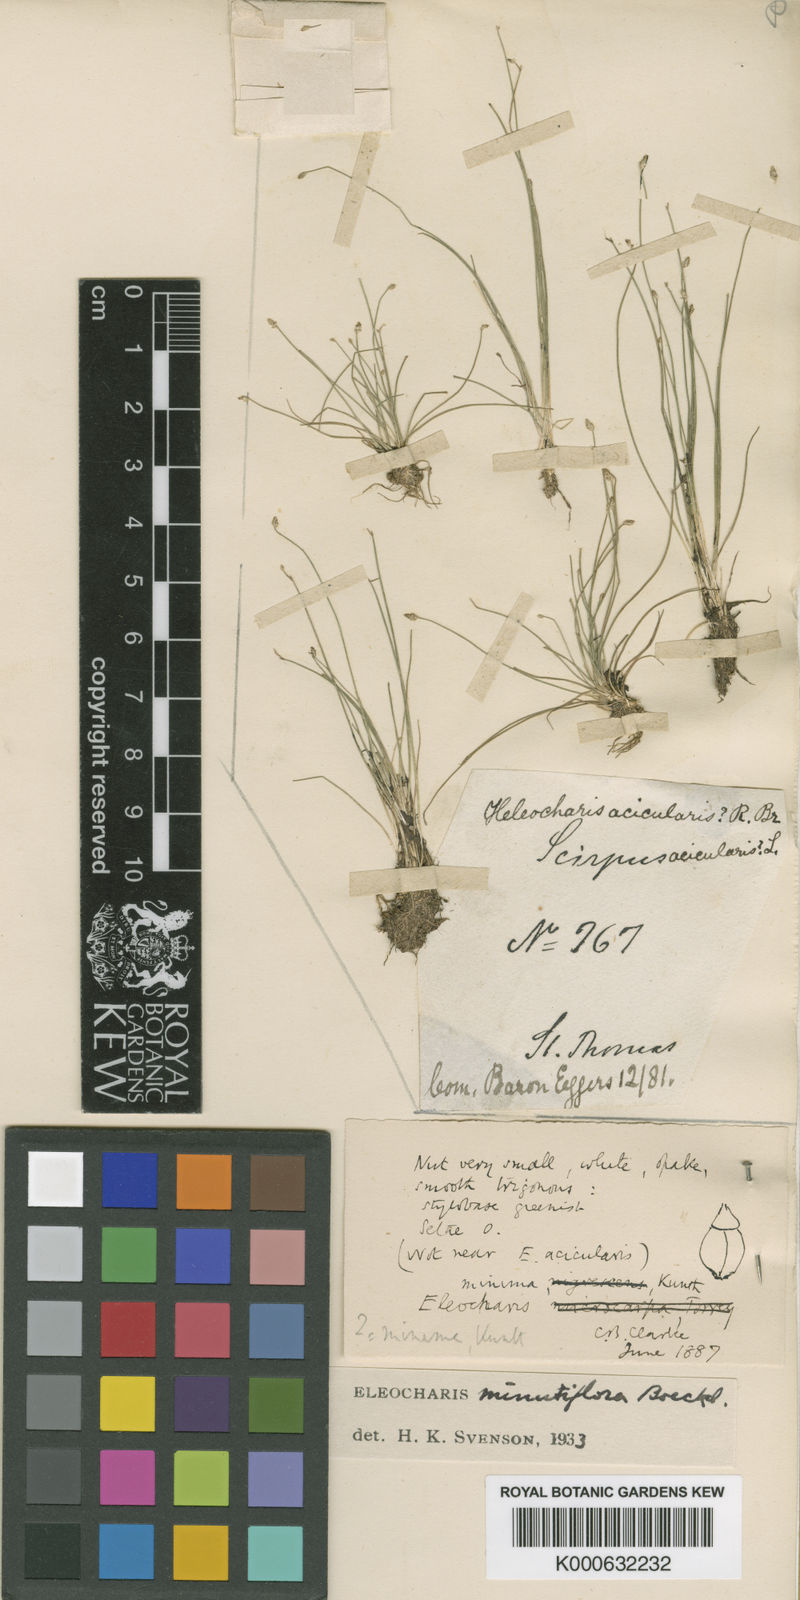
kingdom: Plantae
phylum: Tracheophyta
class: Liliopsida
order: Poales
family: Cyperaceae
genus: Eleocharis
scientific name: Eleocharis minutiflora
